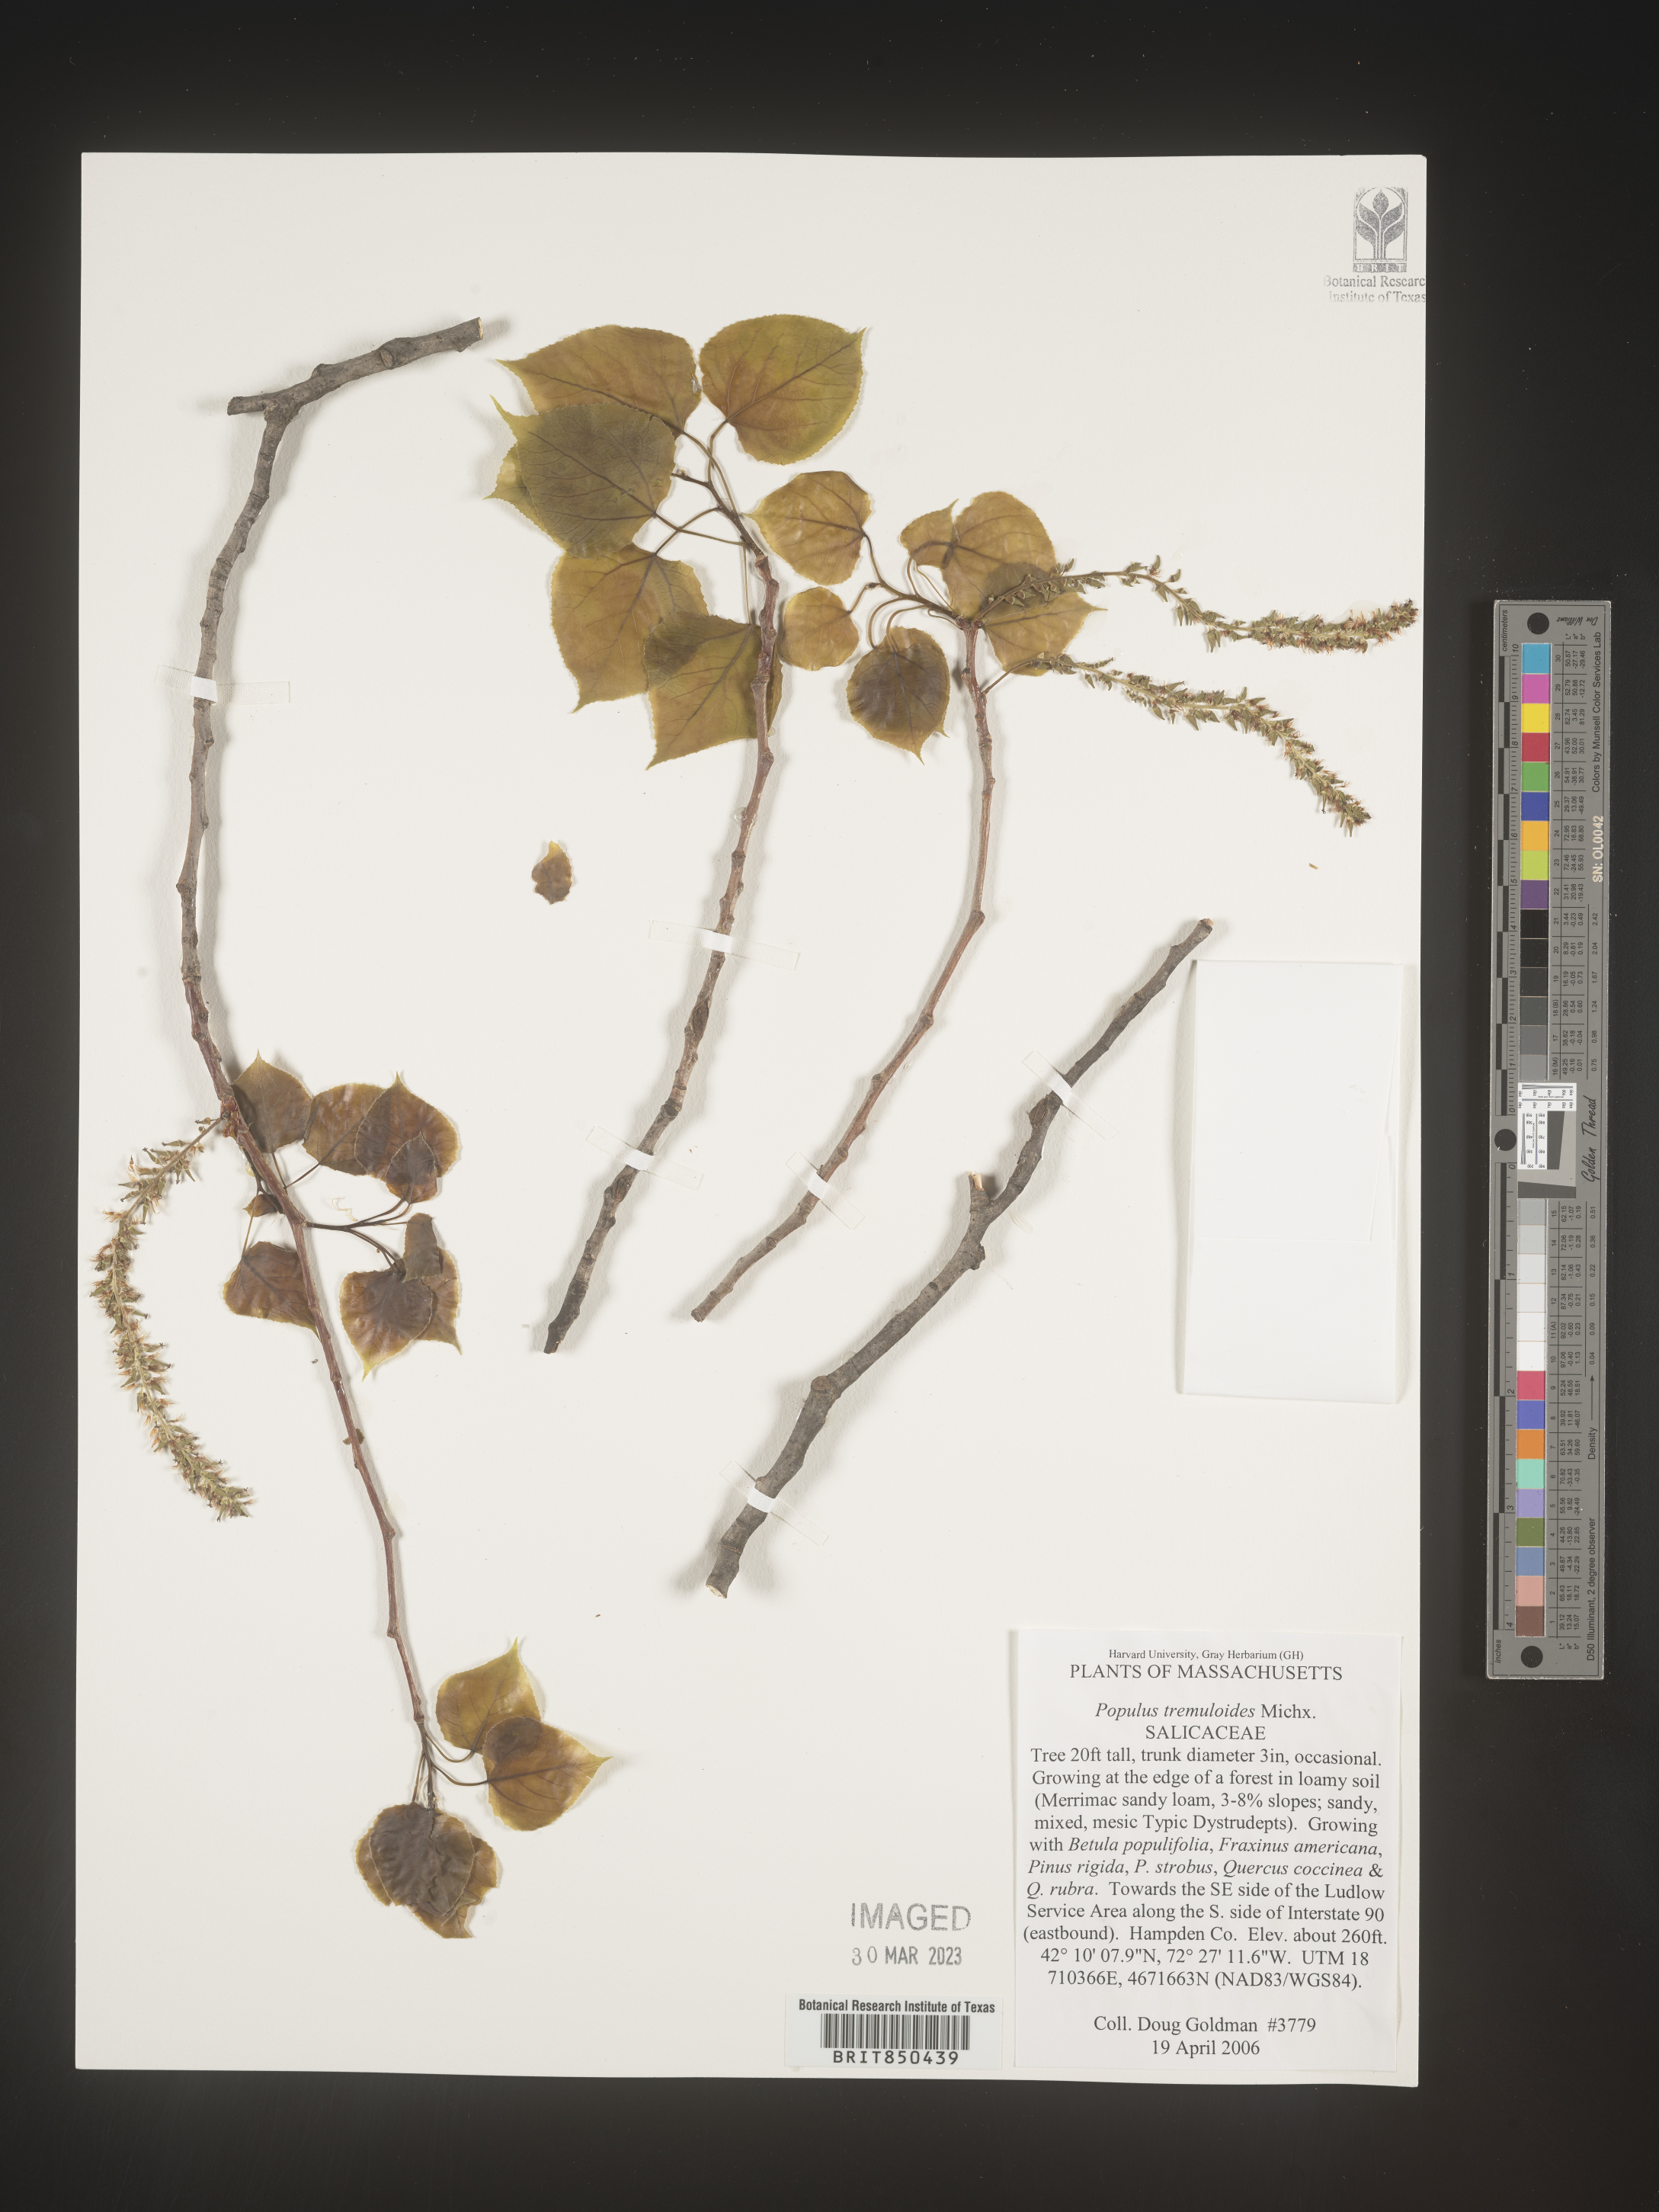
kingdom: Plantae
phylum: Tracheophyta
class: Magnoliopsida
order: Malpighiales
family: Salicaceae
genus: Populus
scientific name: Populus tremuloides
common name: Quaking aspen
